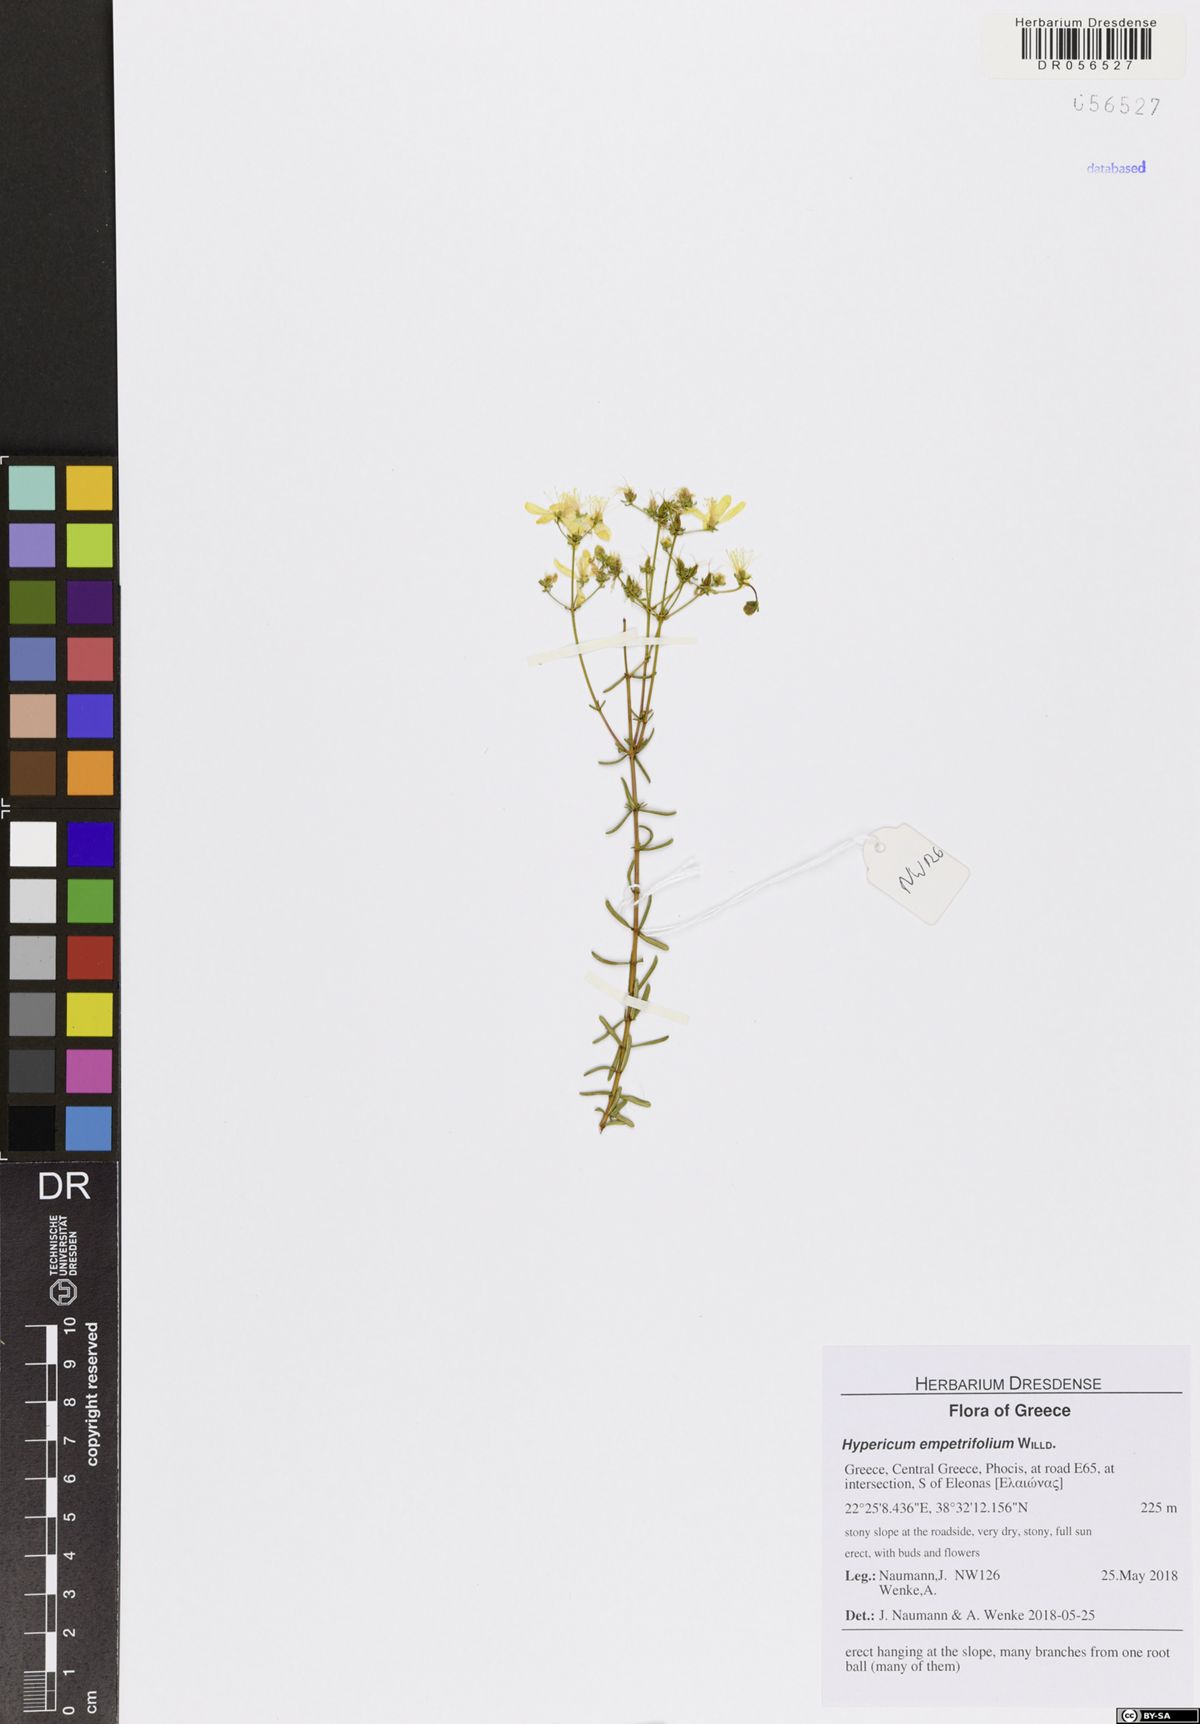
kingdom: Plantae
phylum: Tracheophyta
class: Magnoliopsida
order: Malpighiales
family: Hypericaceae
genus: Hypericum
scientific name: Hypericum empetrifolium
